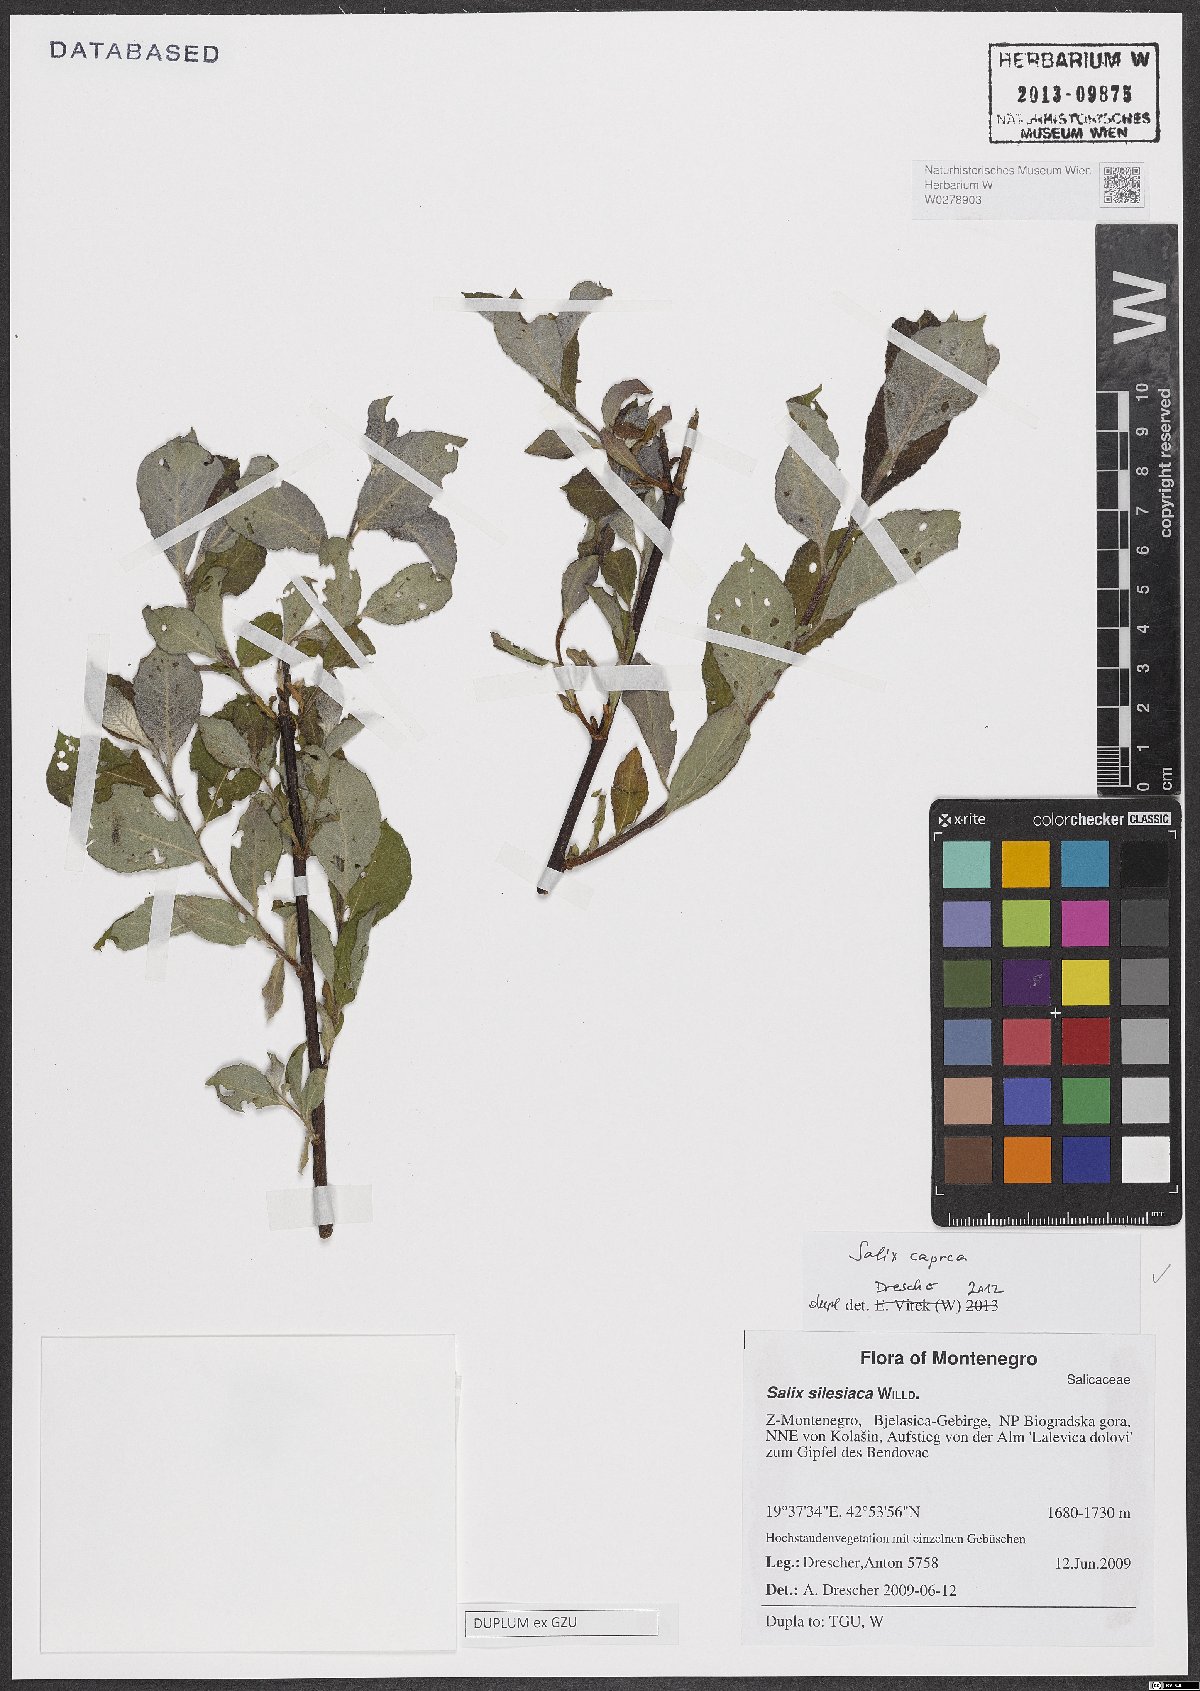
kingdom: Plantae
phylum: Tracheophyta
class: Magnoliopsida
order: Malpighiales
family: Salicaceae
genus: Salix
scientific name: Salix caprea
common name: Goat willow
